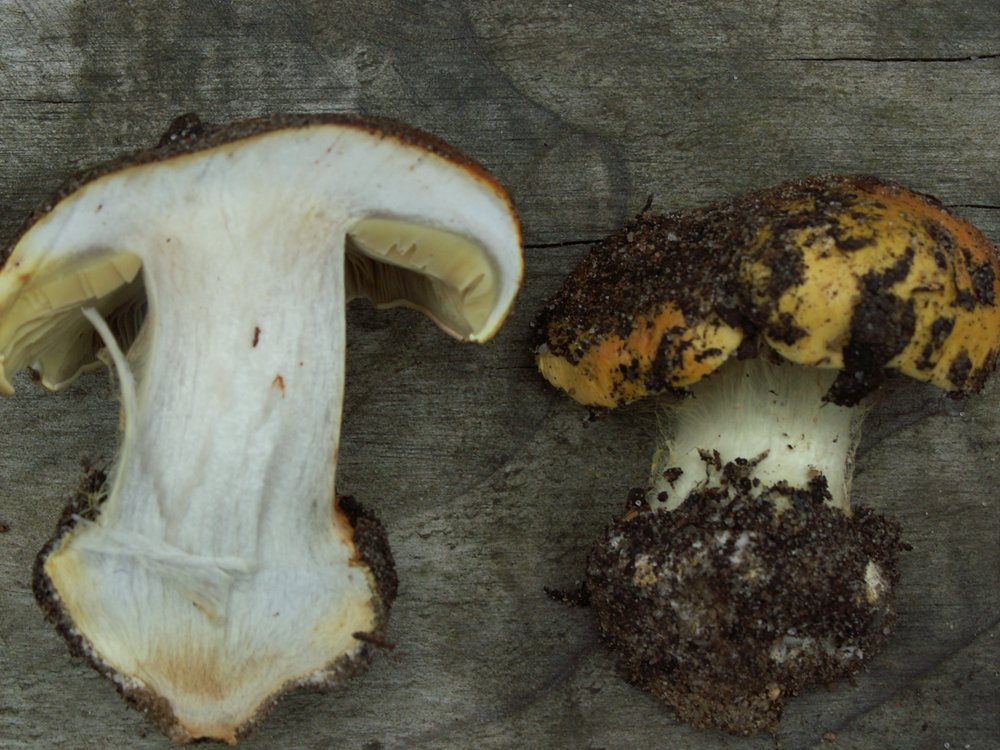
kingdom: Fungi
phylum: Basidiomycota
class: Agaricomycetes
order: Agaricales
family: Cortinariaceae
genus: Cortinarius
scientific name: Cortinarius bergeronii
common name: prægtig slørhat
